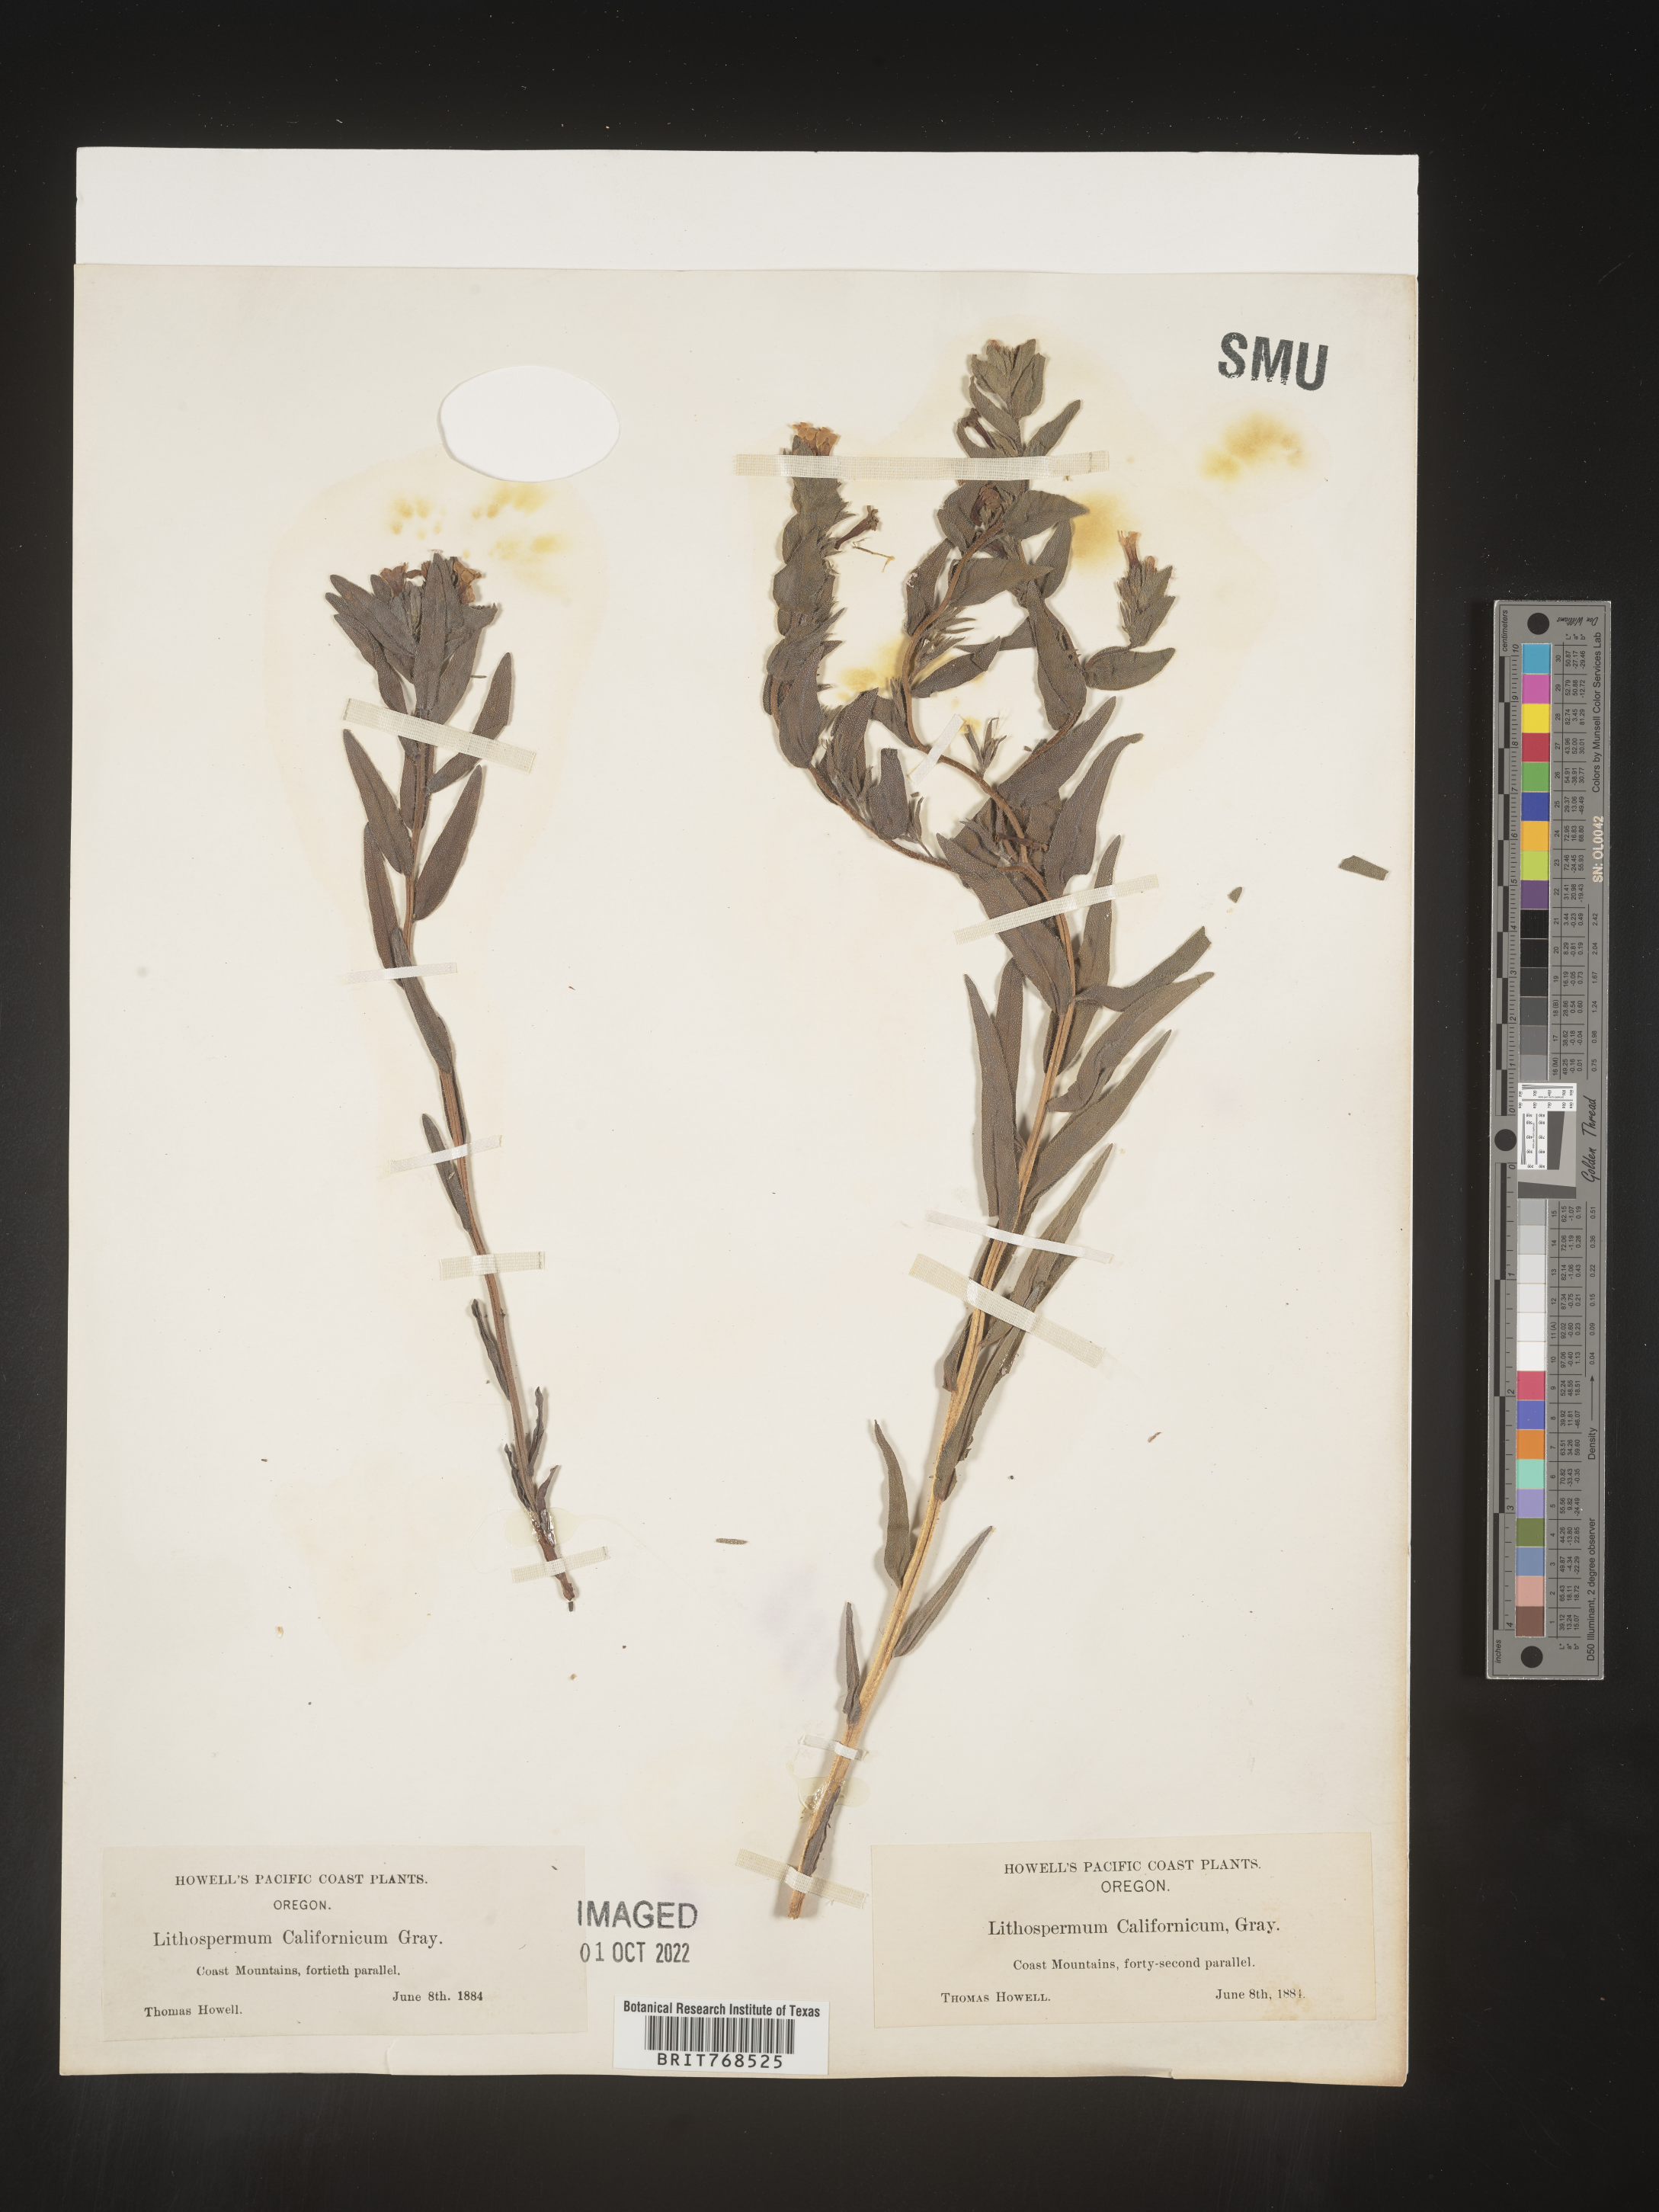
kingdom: Plantae
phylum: Tracheophyta
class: Magnoliopsida
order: Boraginales
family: Boraginaceae
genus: Lithospermum
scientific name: Lithospermum
